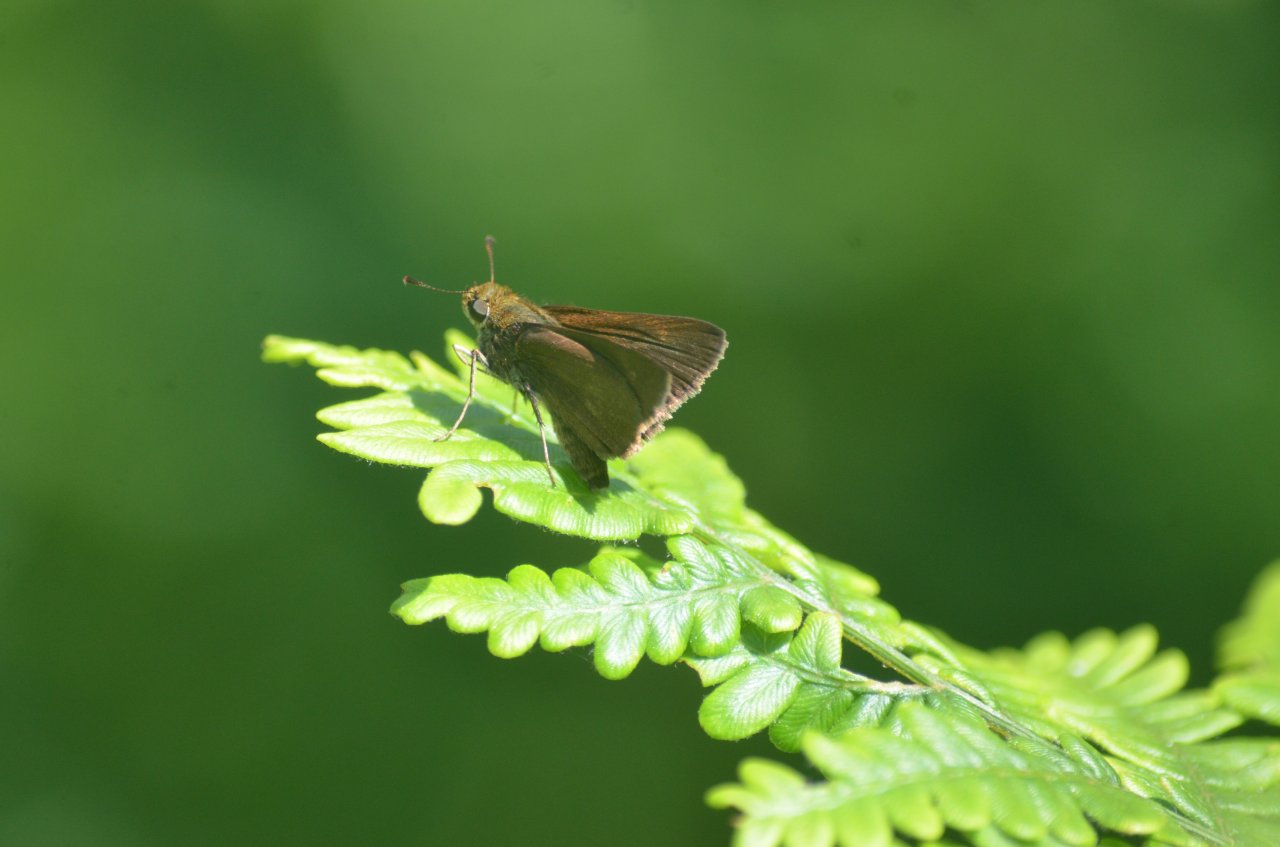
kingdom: Animalia
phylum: Arthropoda
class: Insecta
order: Lepidoptera
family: Hesperiidae
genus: Euphyes
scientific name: Euphyes vestris
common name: Dun Skipper
